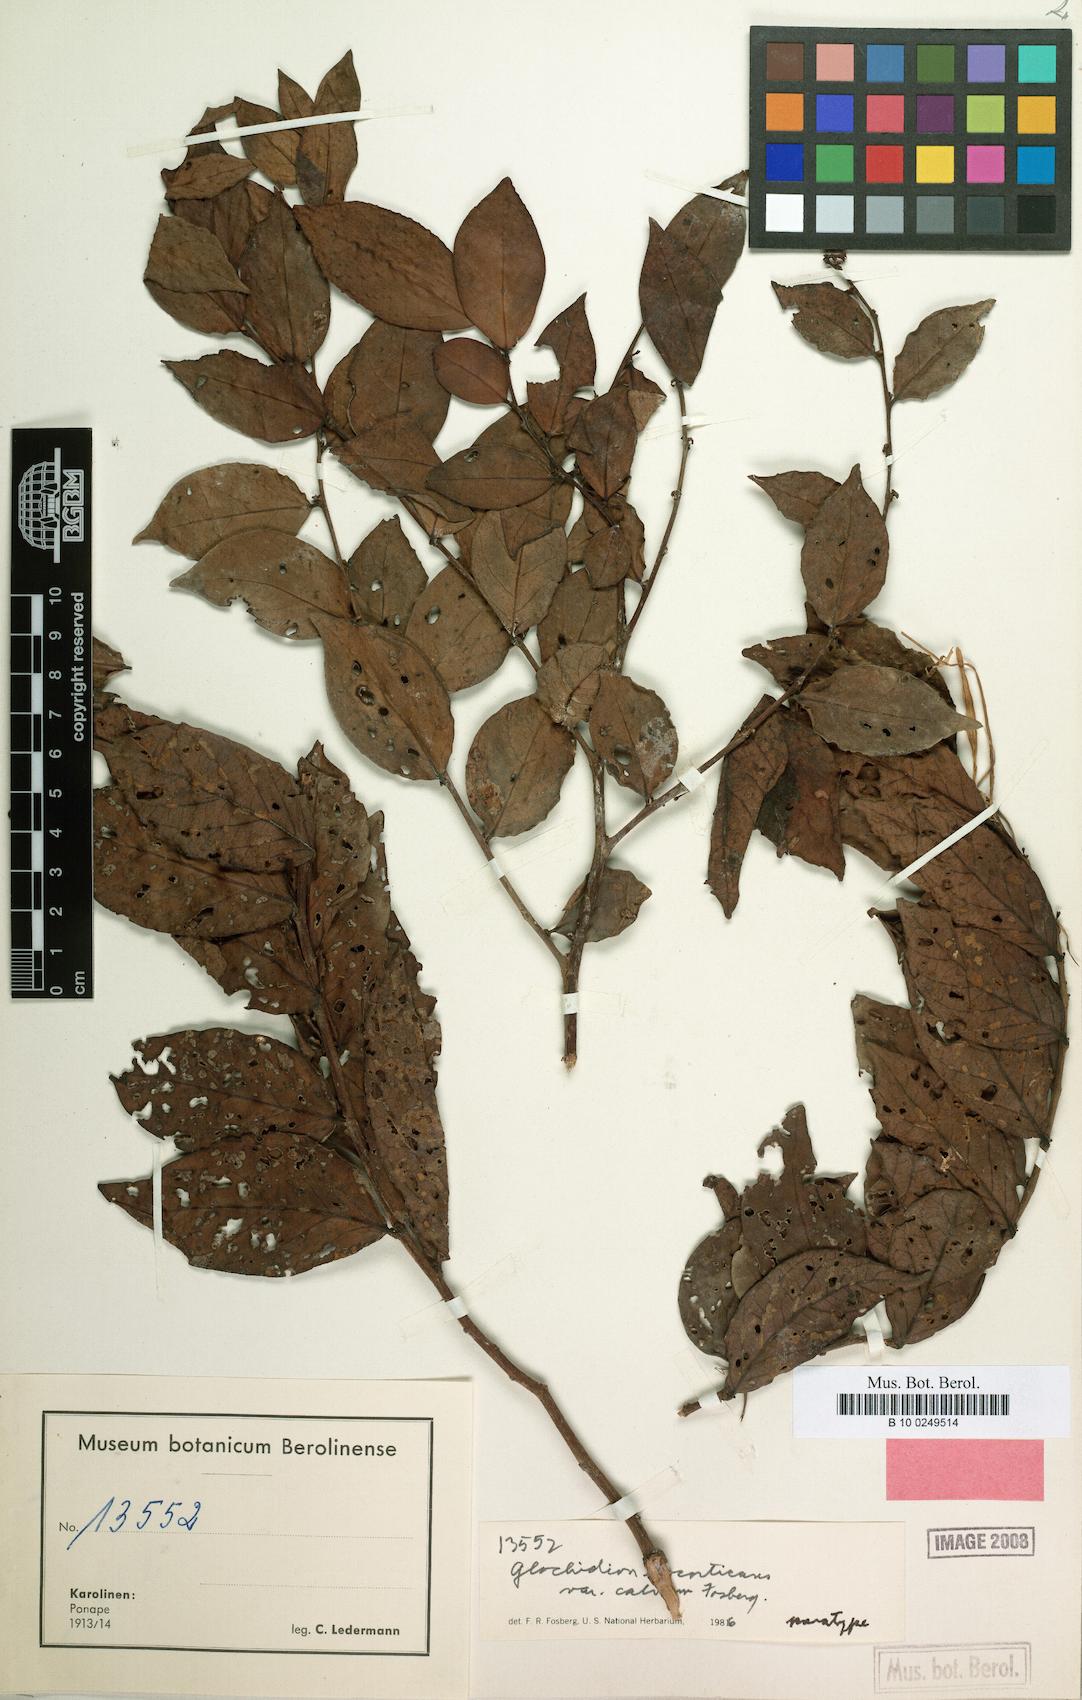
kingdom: Plantae
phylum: Tracheophyta
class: Magnoliopsida
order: Malpighiales
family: Phyllanthaceae
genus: Glochidion
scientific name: Glochidion ponapense
